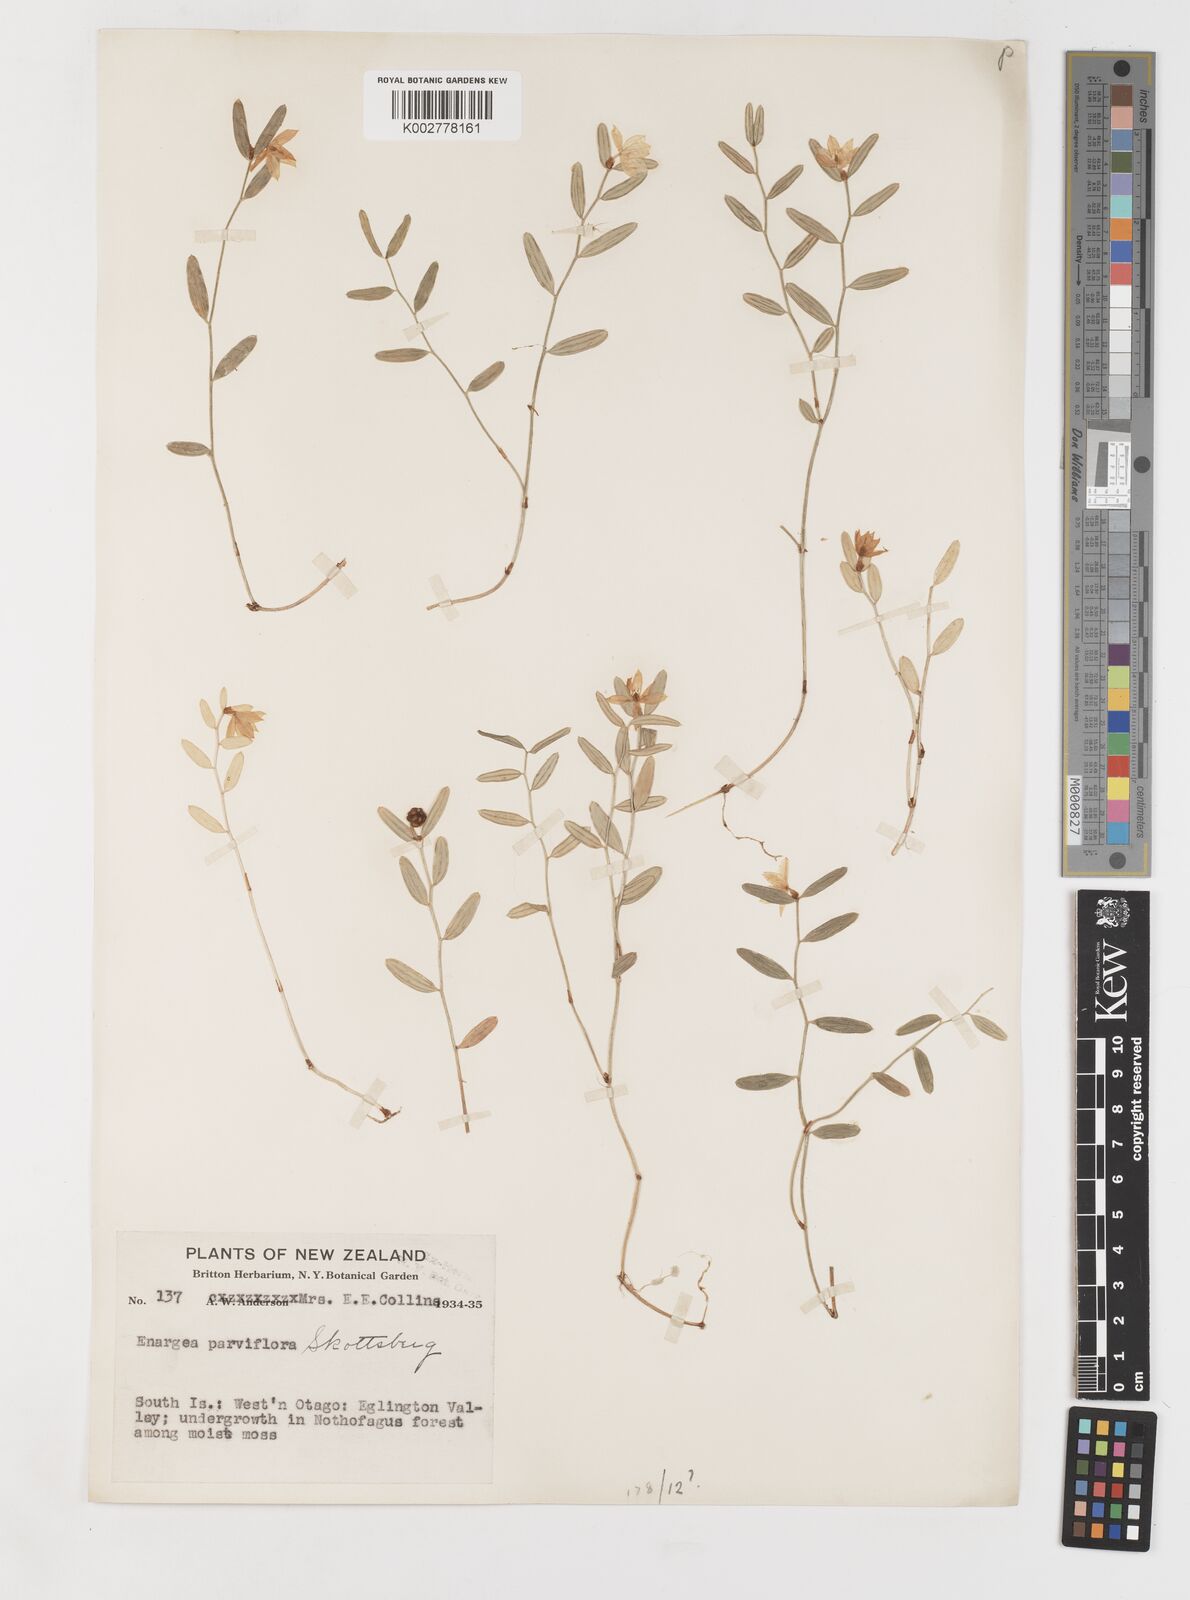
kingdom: Plantae
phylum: Tracheophyta
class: Liliopsida
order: Liliales
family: Alstroemeriaceae
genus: Luzuriaga
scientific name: Luzuriaga parviflora
